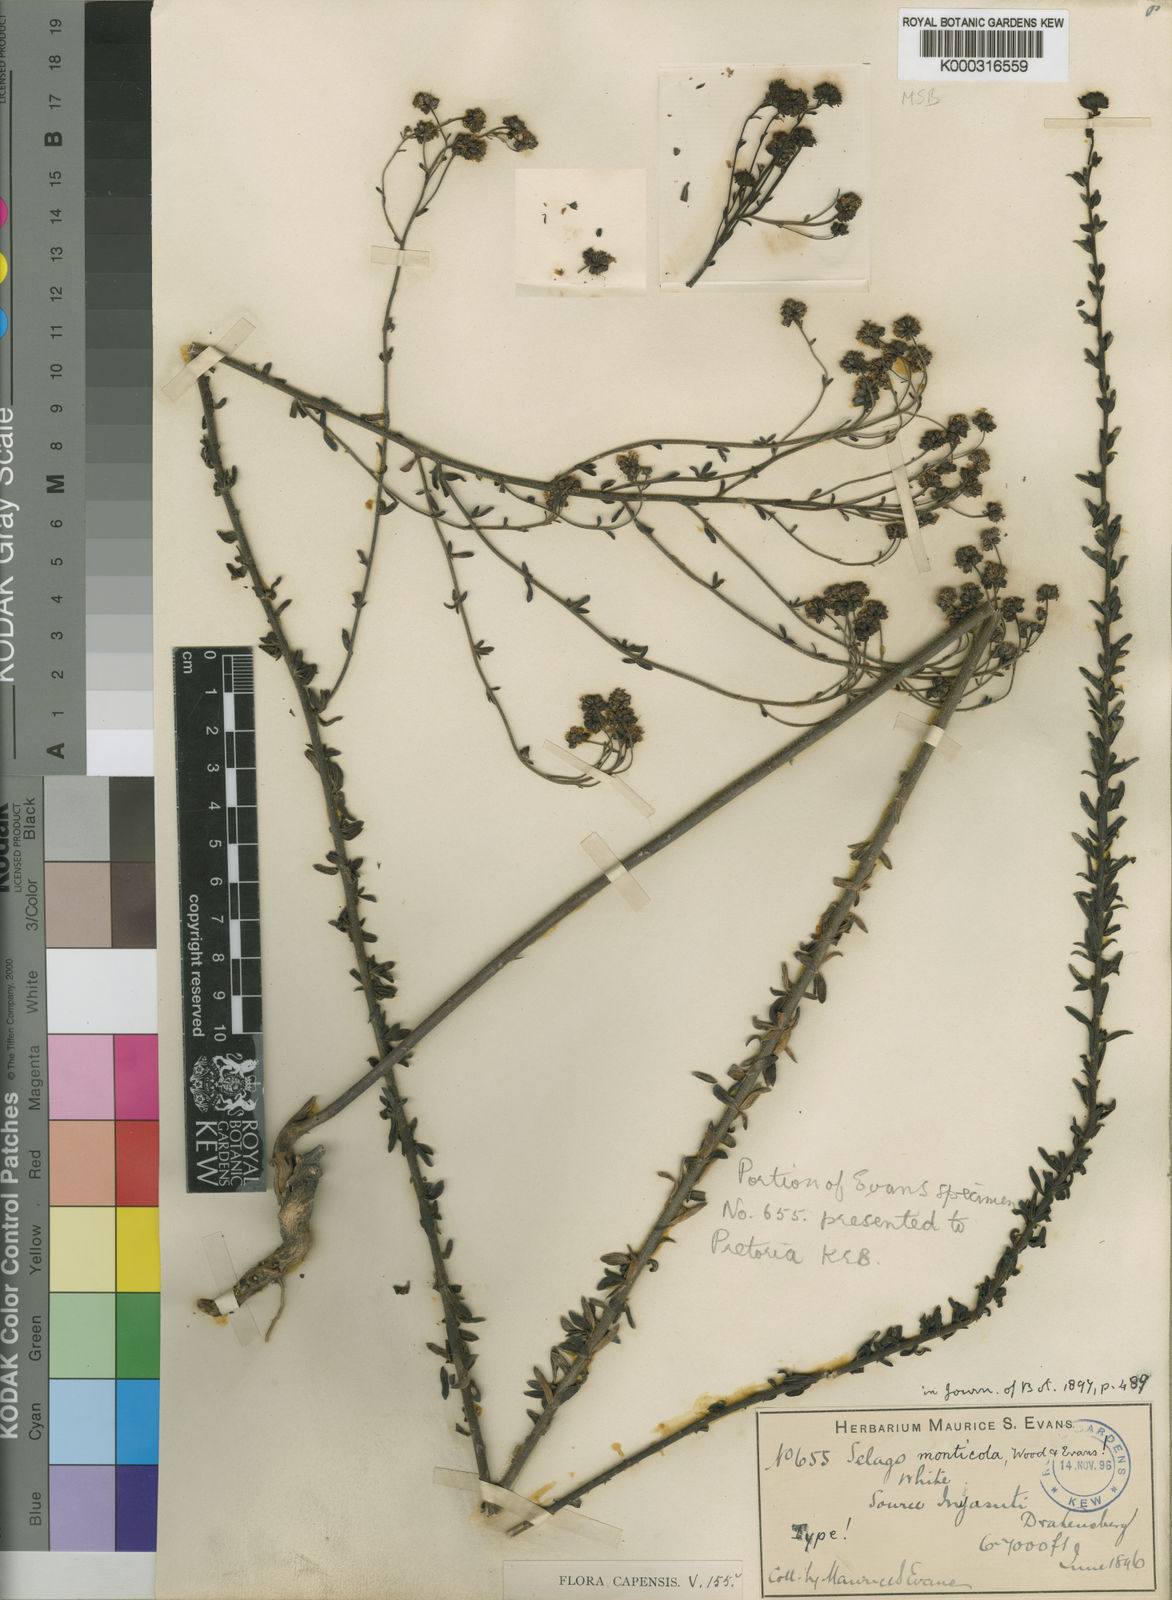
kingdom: Plantae
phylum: Tracheophyta
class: Magnoliopsida
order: Lamiales
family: Scrophulariaceae
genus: Selago
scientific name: Selago monticola
